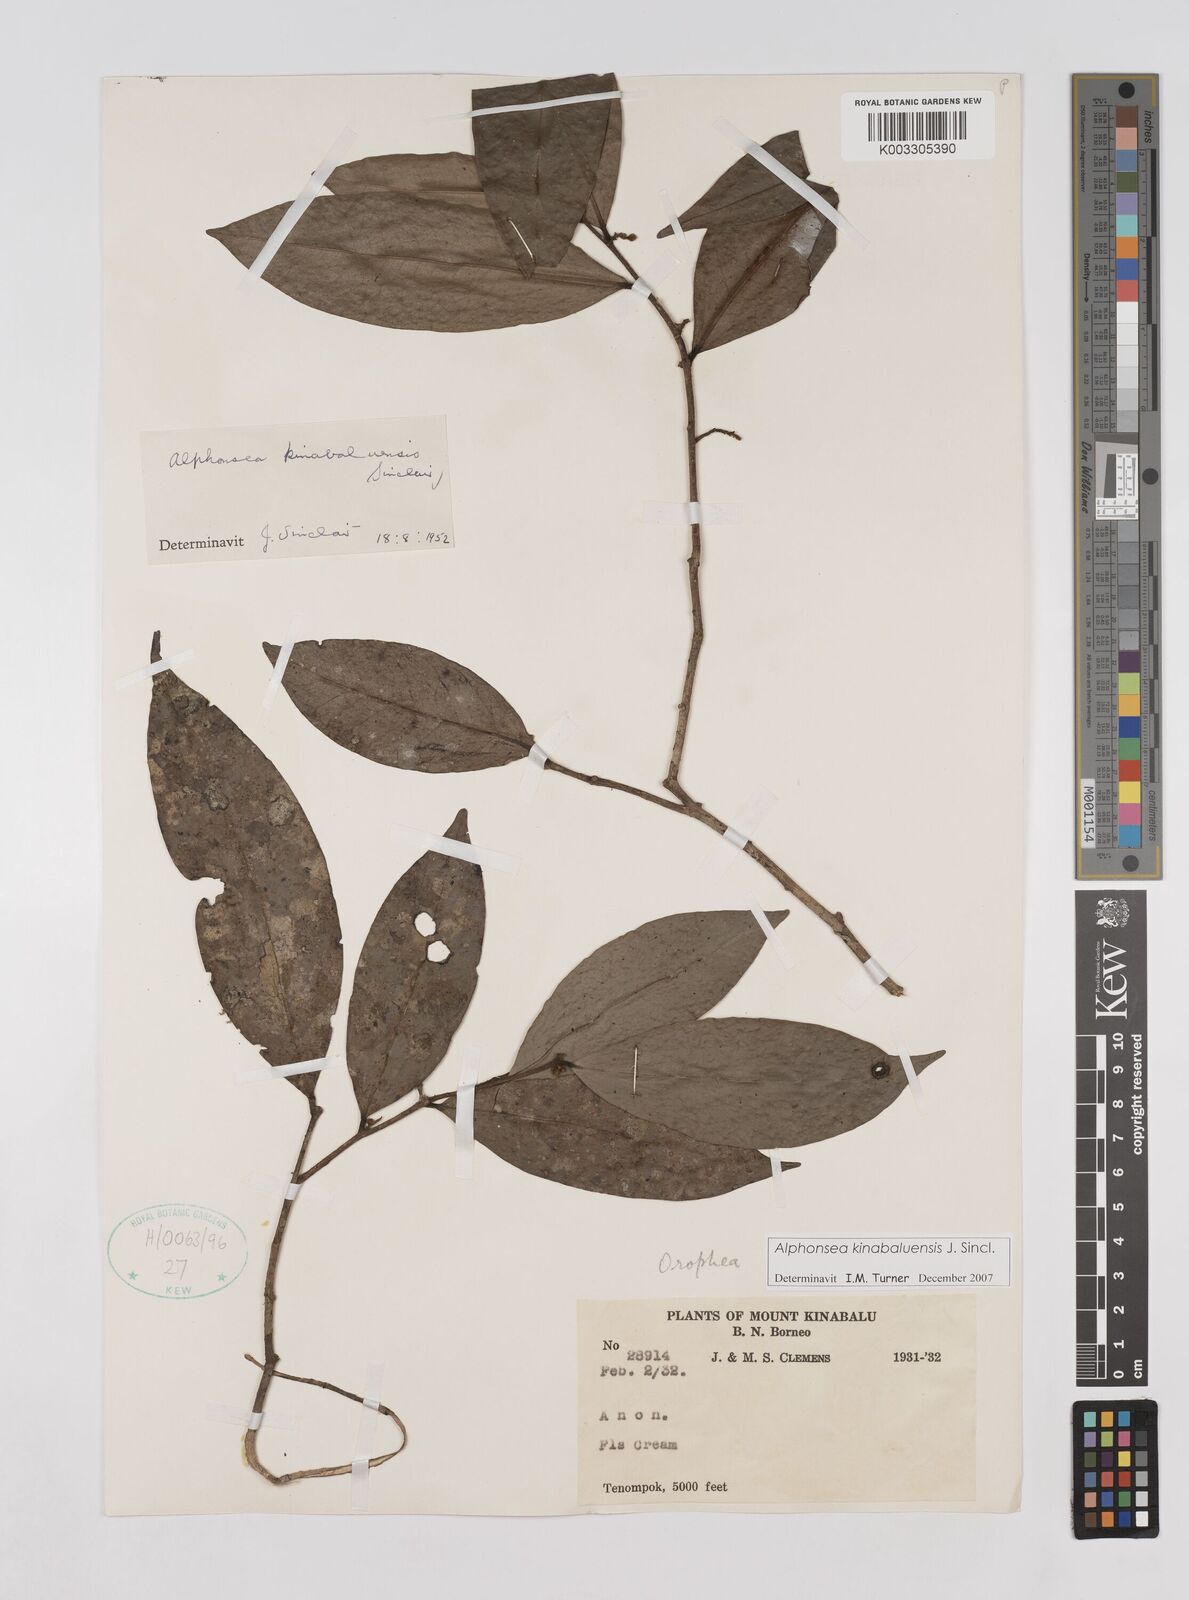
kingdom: Plantae
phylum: Tracheophyta
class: Magnoliopsida
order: Magnoliales
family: Annonaceae
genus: Alphonsea
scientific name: Alphonsea kinabaluensis
